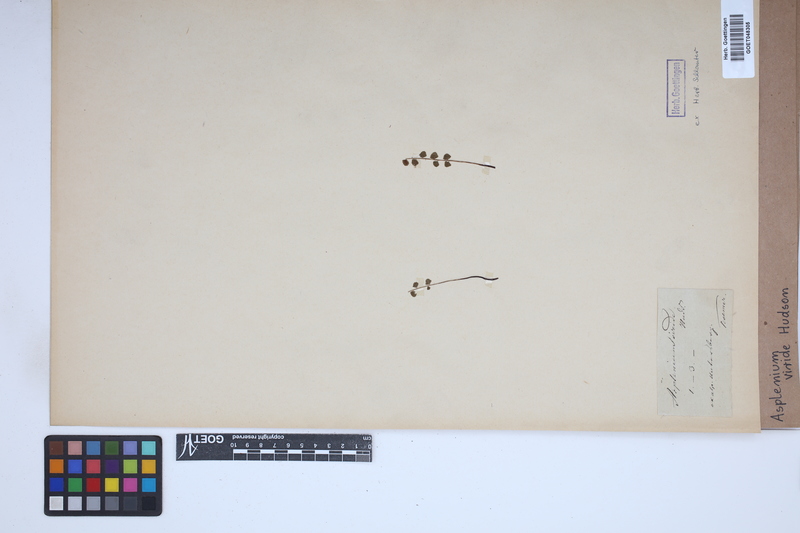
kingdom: Plantae
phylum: Tracheophyta
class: Polypodiopsida
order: Polypodiales
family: Aspleniaceae
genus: Asplenium
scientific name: Asplenium viride
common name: Green spleenwort
